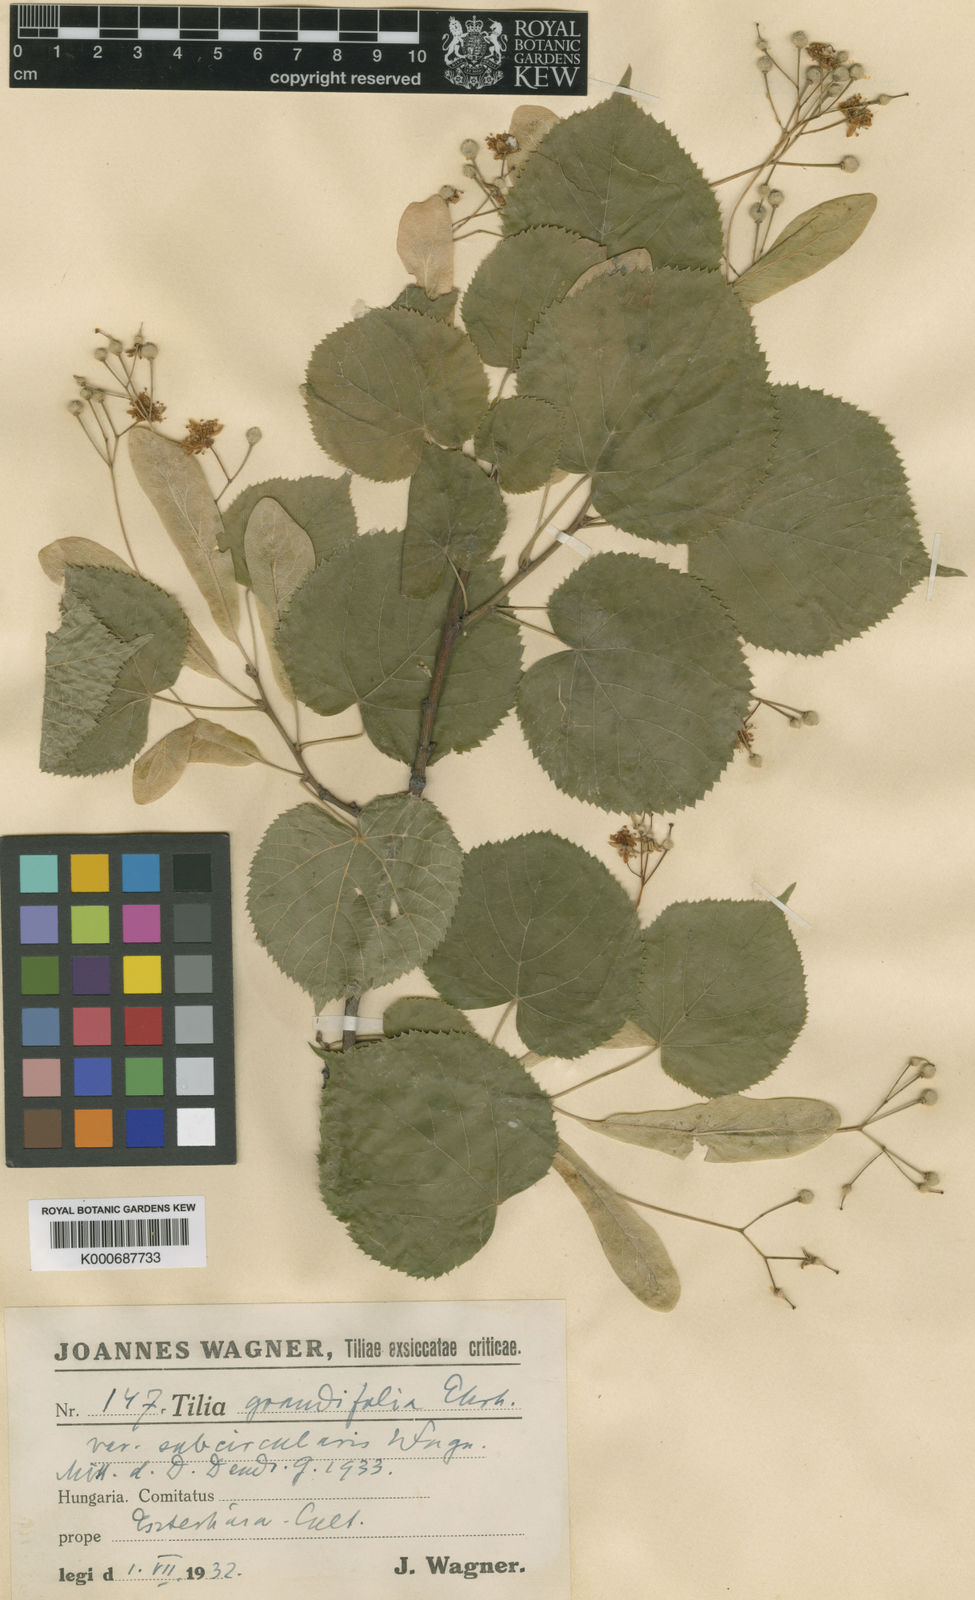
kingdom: Plantae
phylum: Tracheophyta
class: Magnoliopsida
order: Malvales
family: Malvaceae
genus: Tilia
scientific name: Tilia platyphyllos
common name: Large-leaved lime
